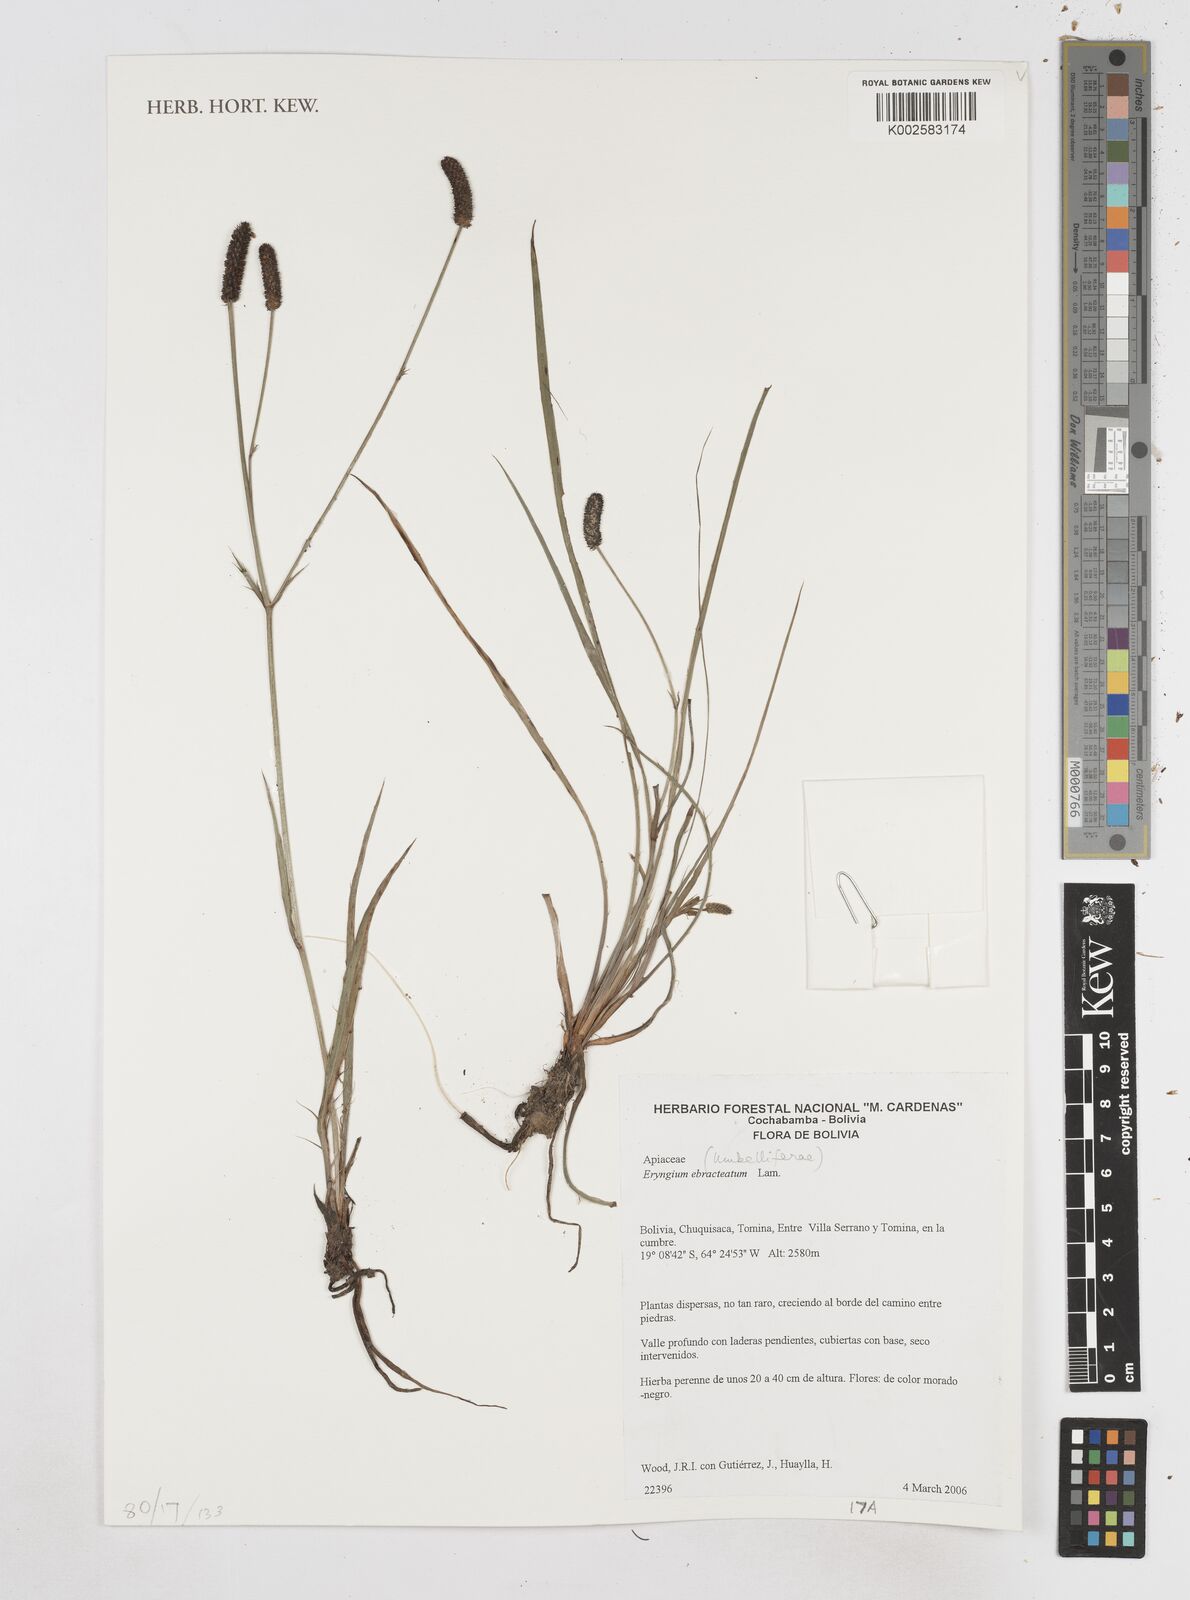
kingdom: Plantae
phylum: Tracheophyta
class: Magnoliopsida
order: Apiales
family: Apiaceae
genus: Eryngium
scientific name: Eryngium ebracteatum
